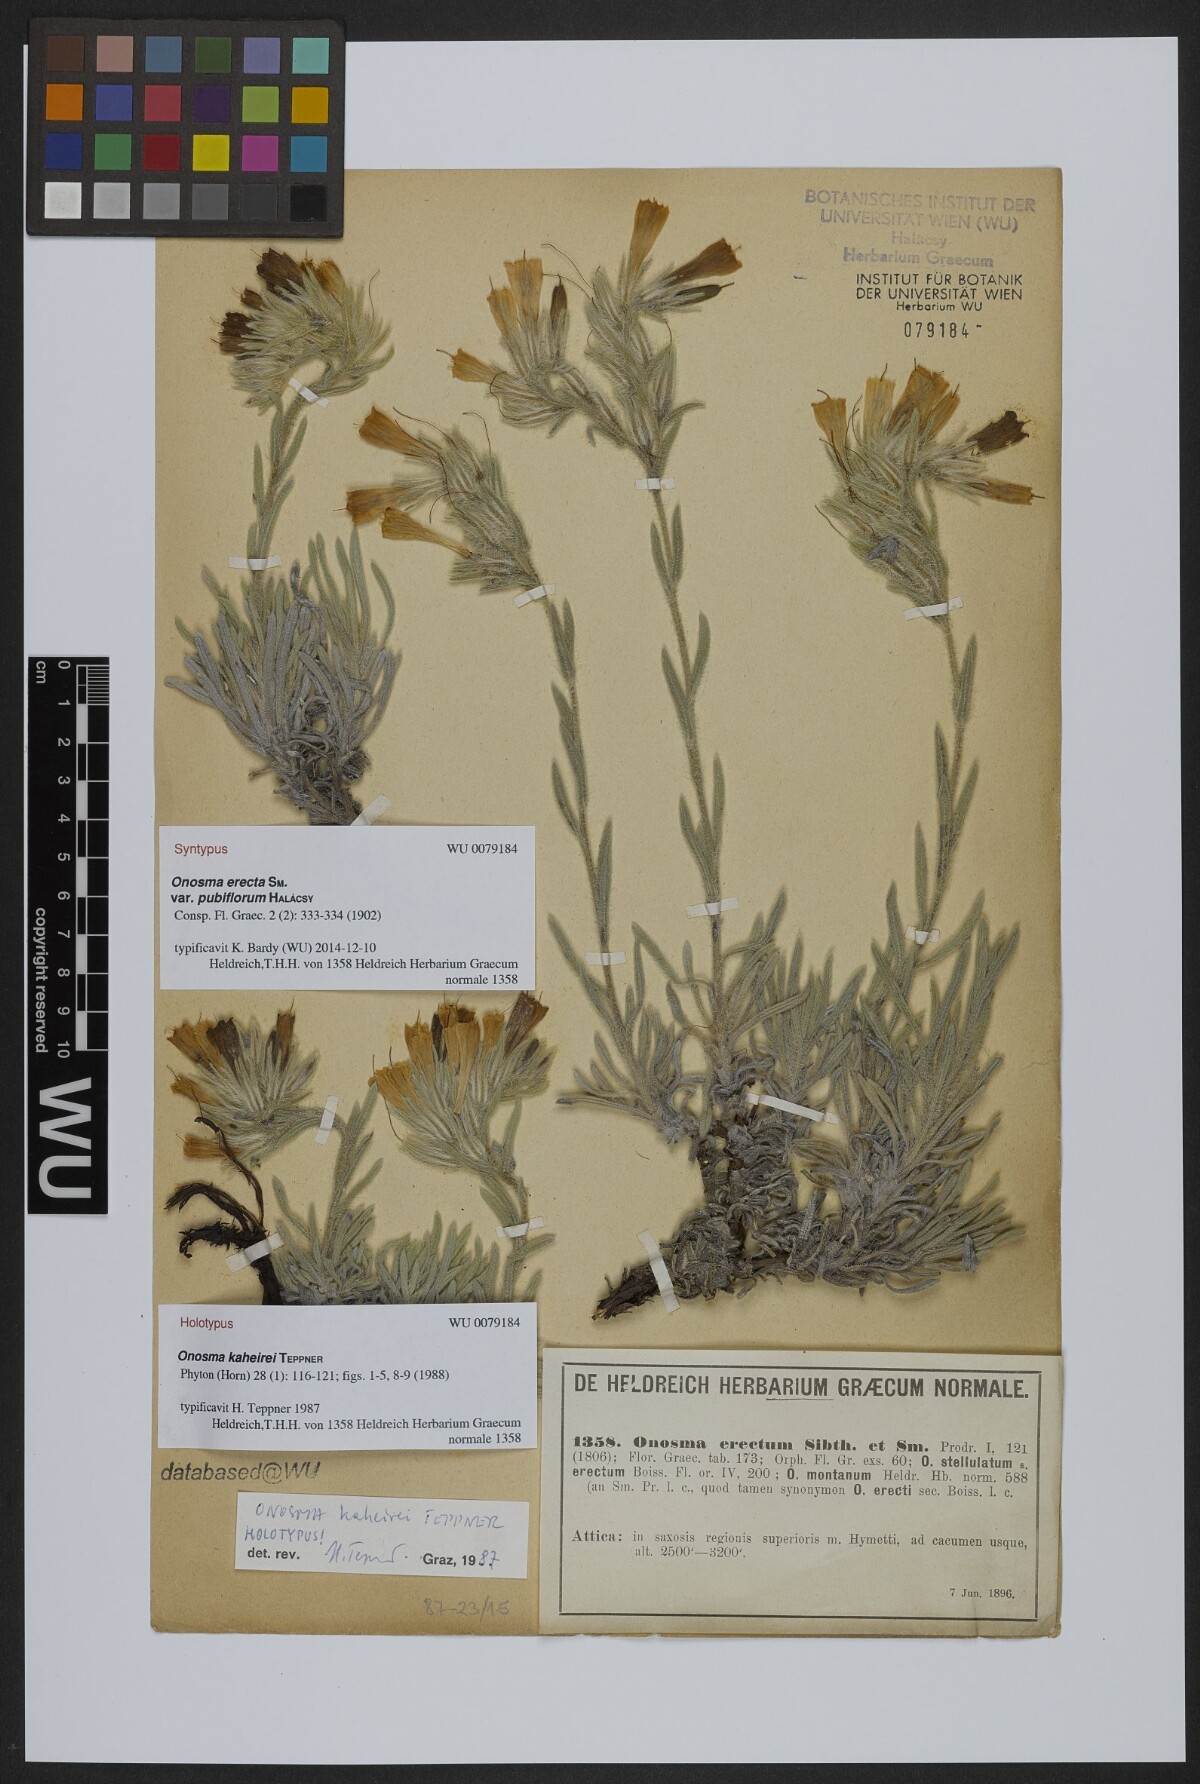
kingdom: Plantae
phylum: Tracheophyta
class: Magnoliopsida
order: Boraginales
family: Boraginaceae
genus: Onosma
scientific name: Onosma kaheirei
